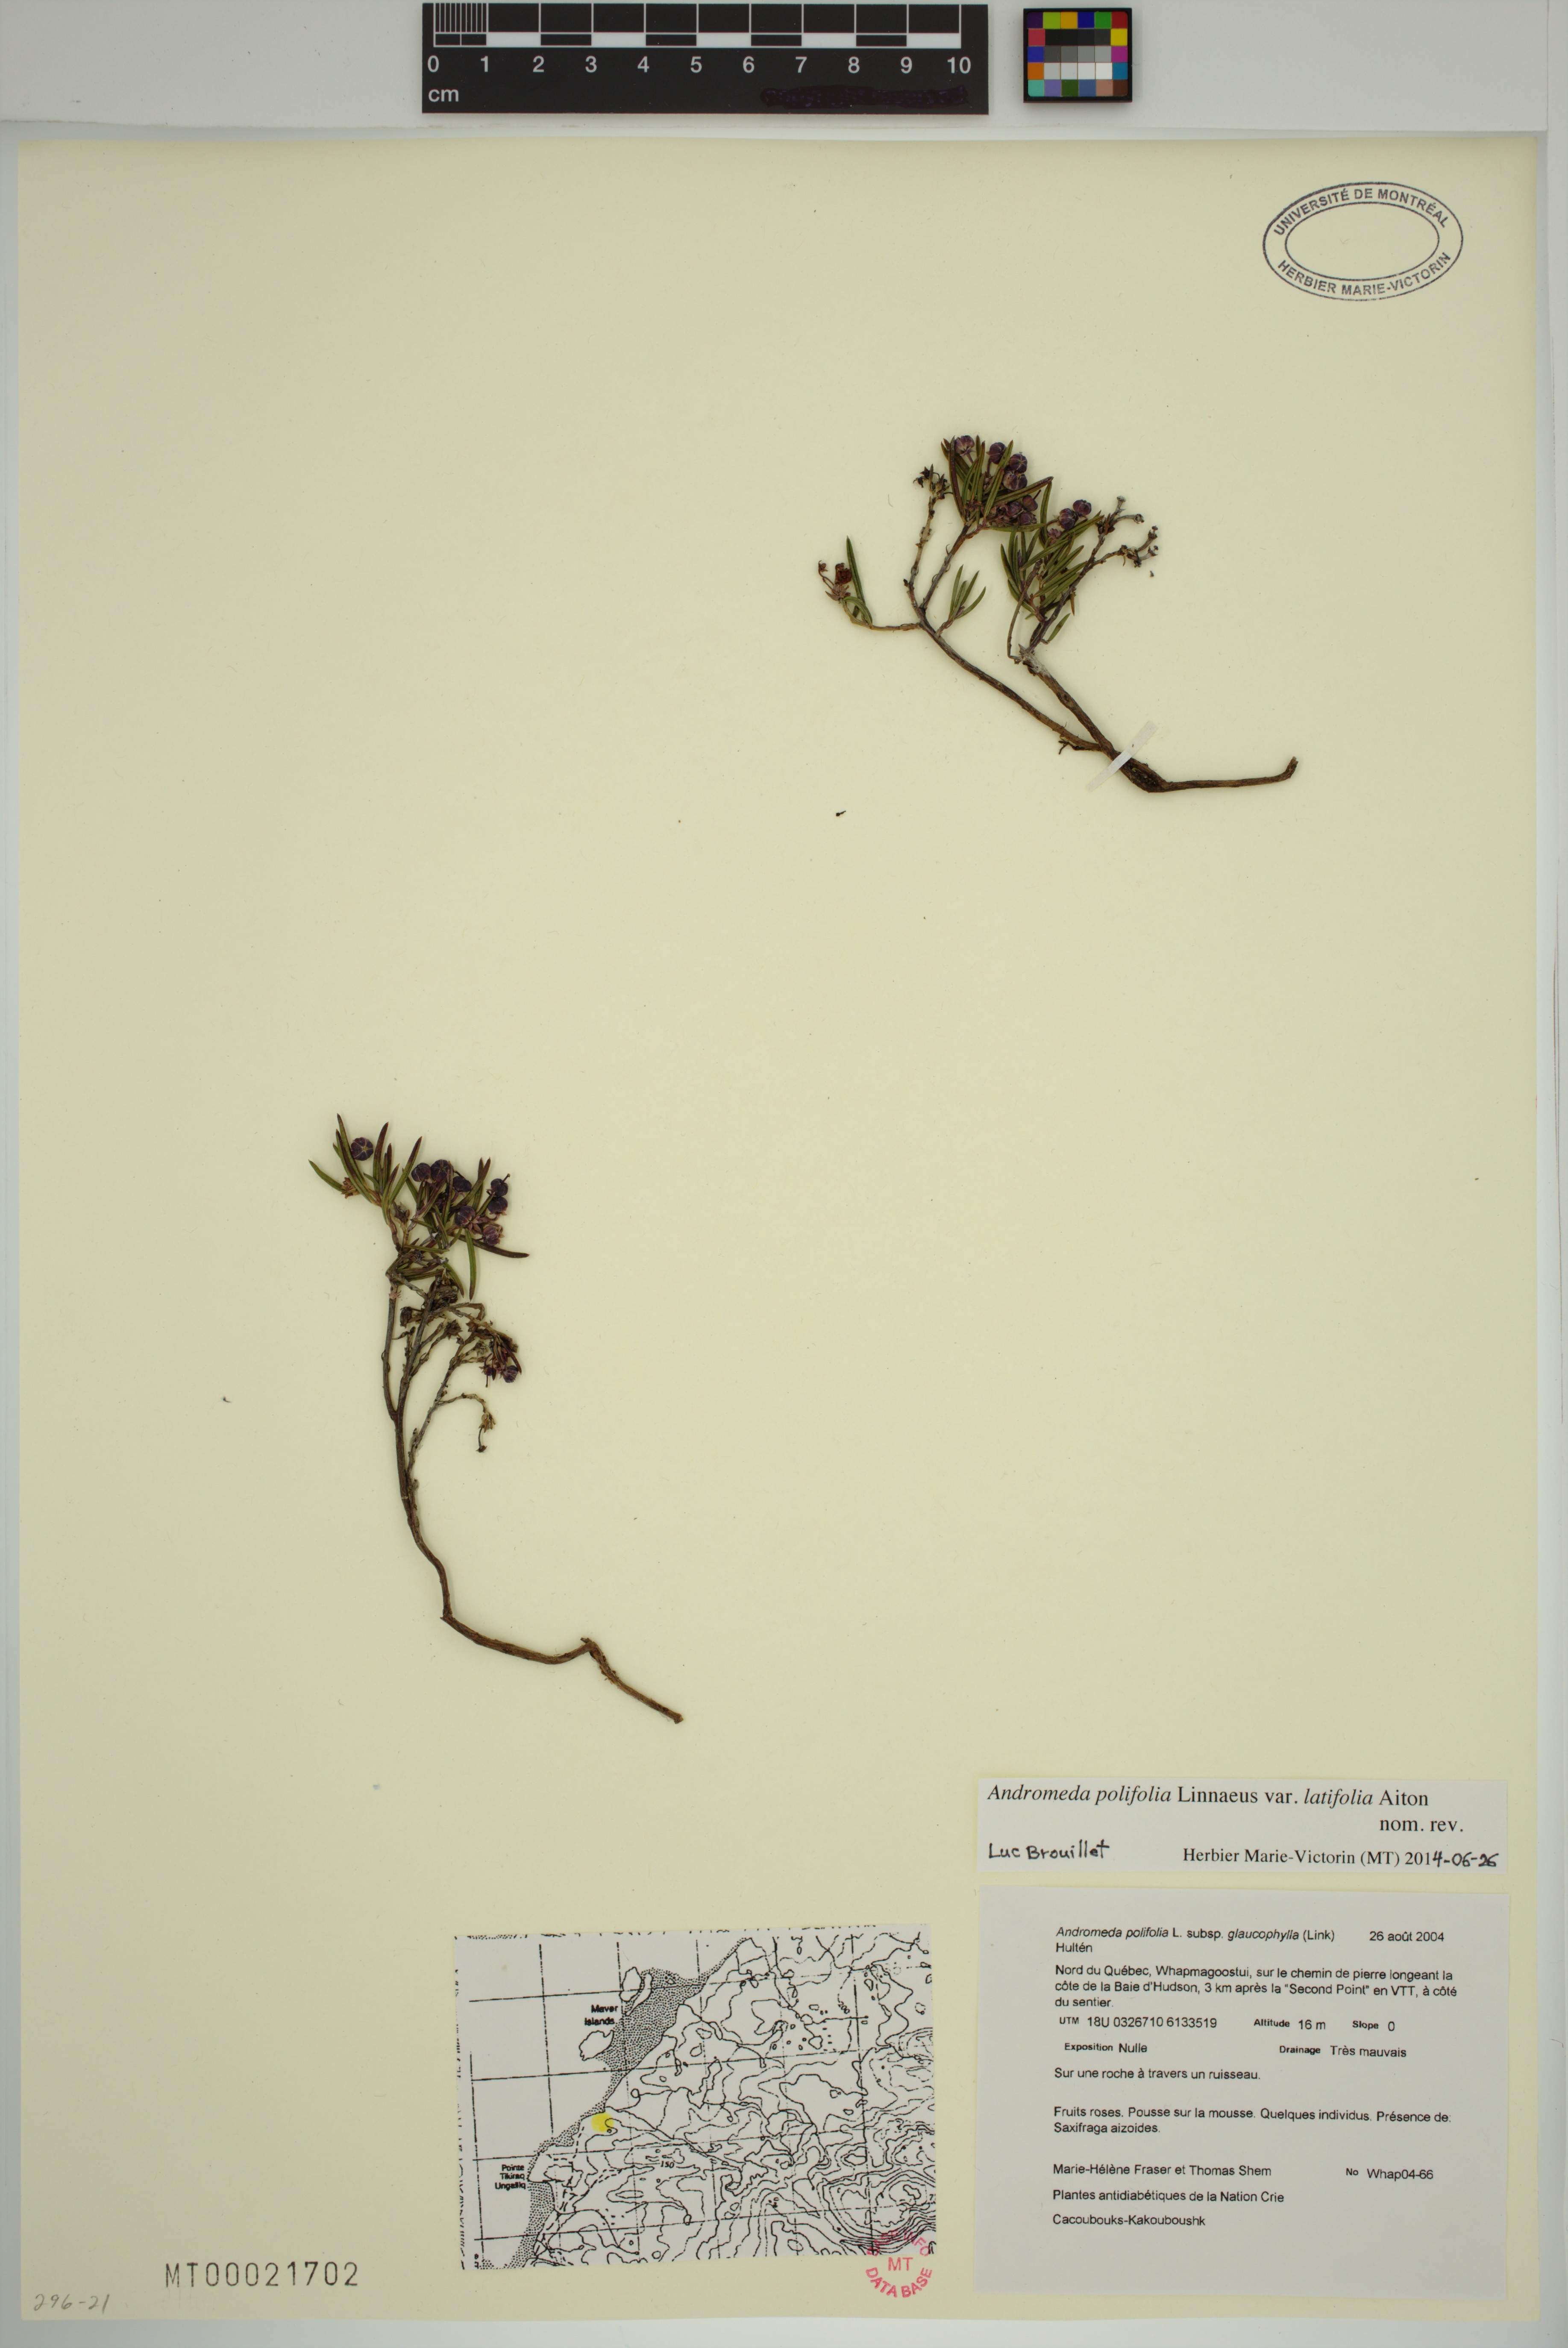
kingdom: Plantae
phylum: Tracheophyta
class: Magnoliopsida
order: Ericales
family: Ericaceae
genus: Andromeda
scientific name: Andromeda polifolia
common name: Bog-rosemary
